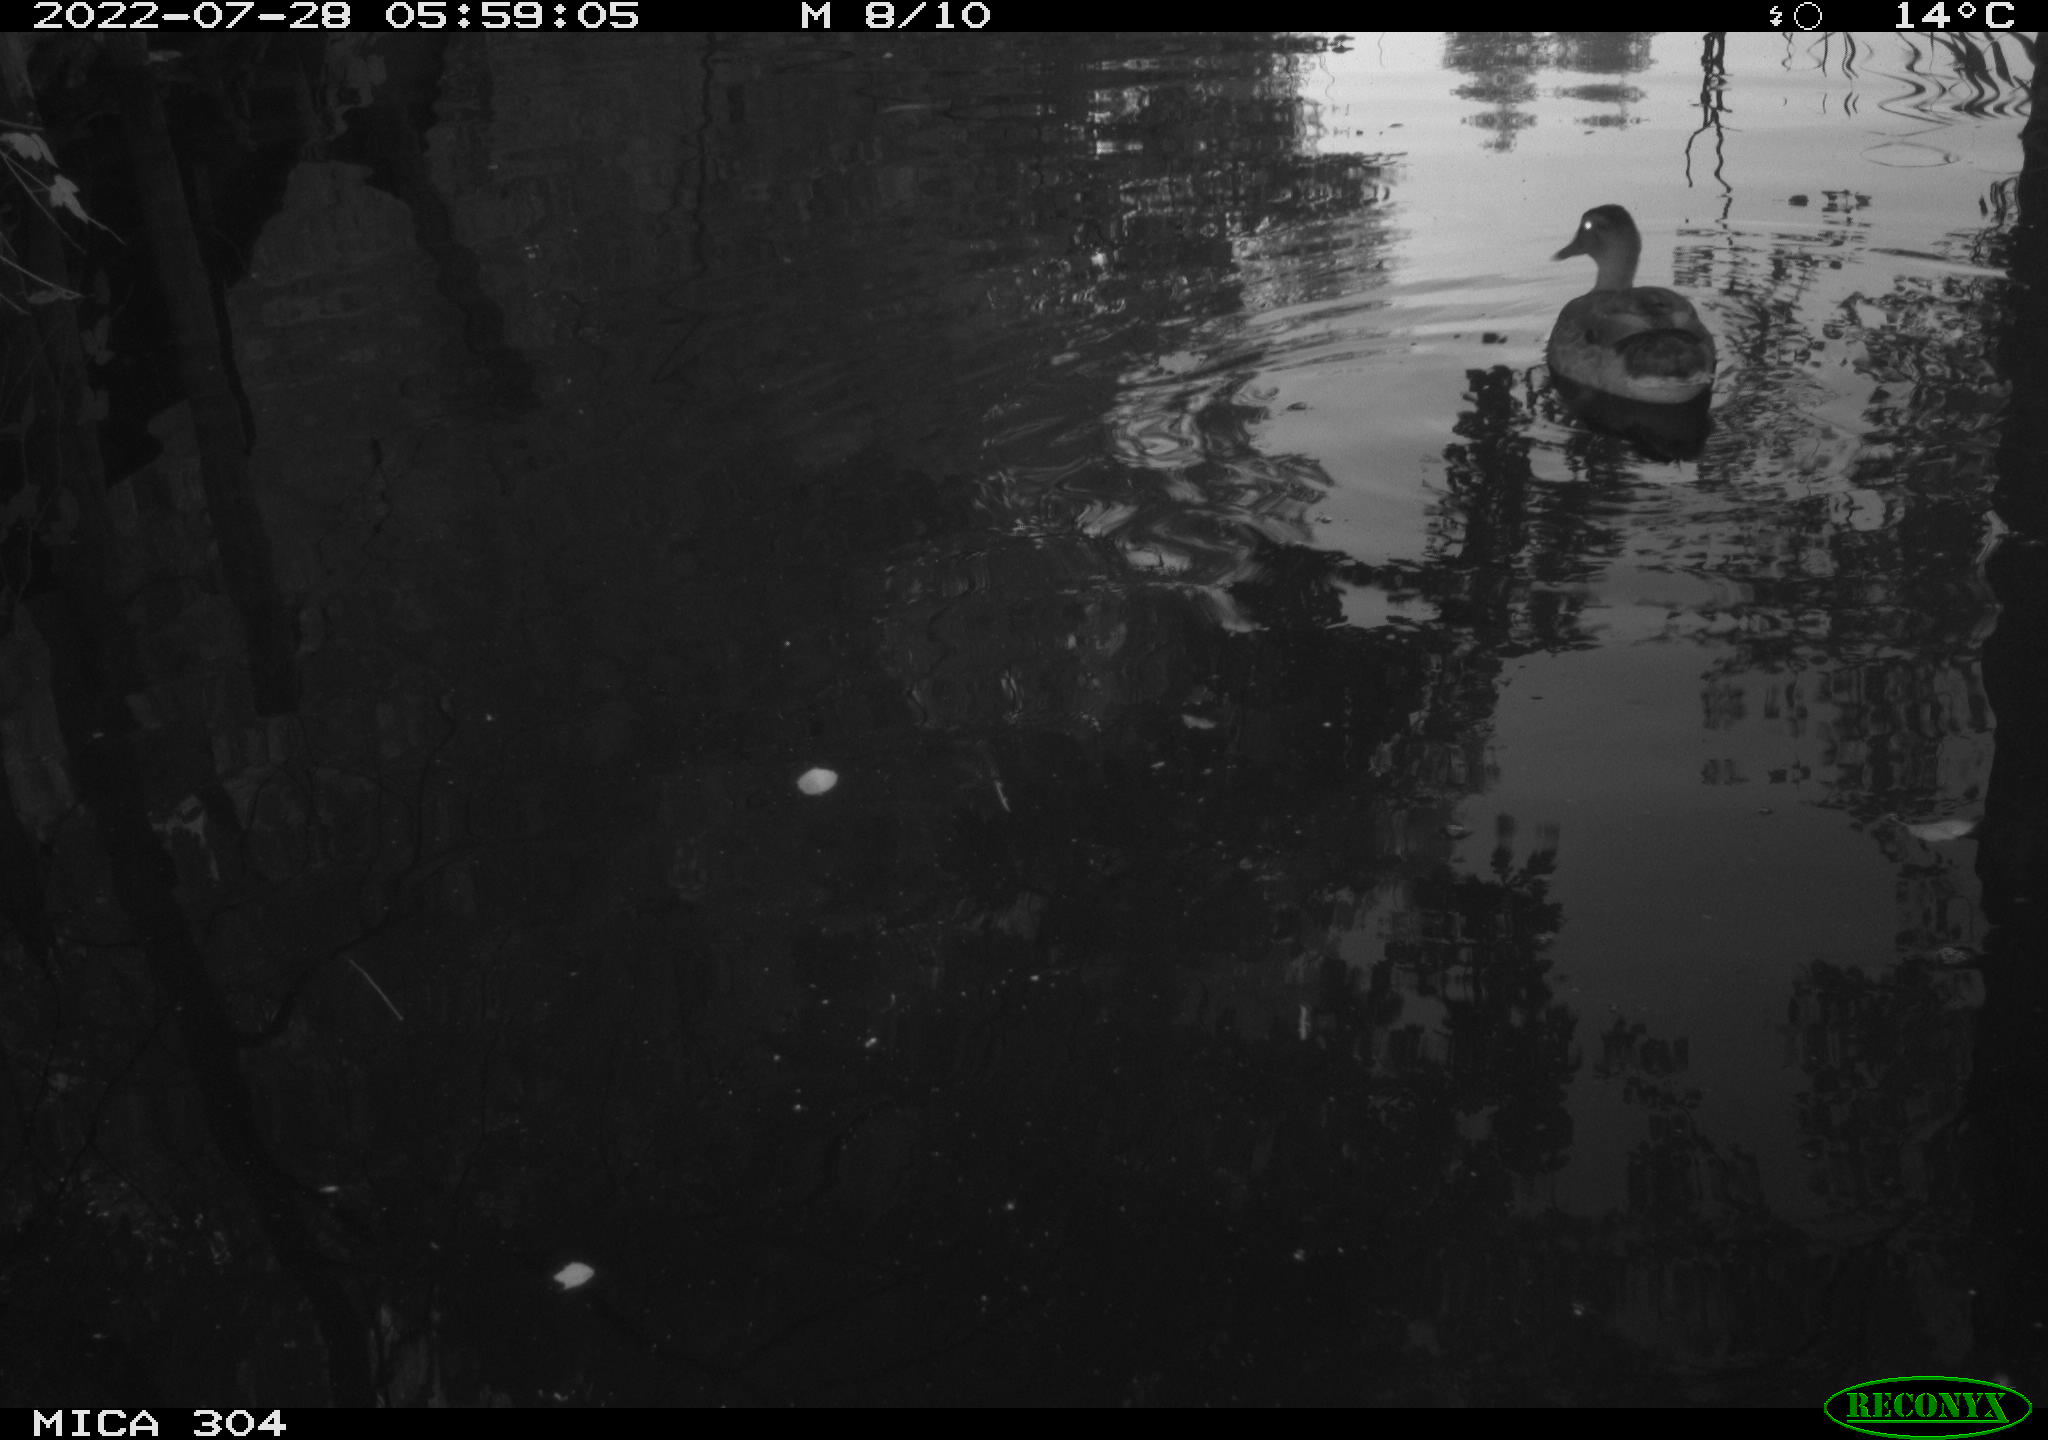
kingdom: Animalia
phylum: Chordata
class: Aves
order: Anseriformes
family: Anatidae
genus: Anas
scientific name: Anas platyrhynchos
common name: Mallard
